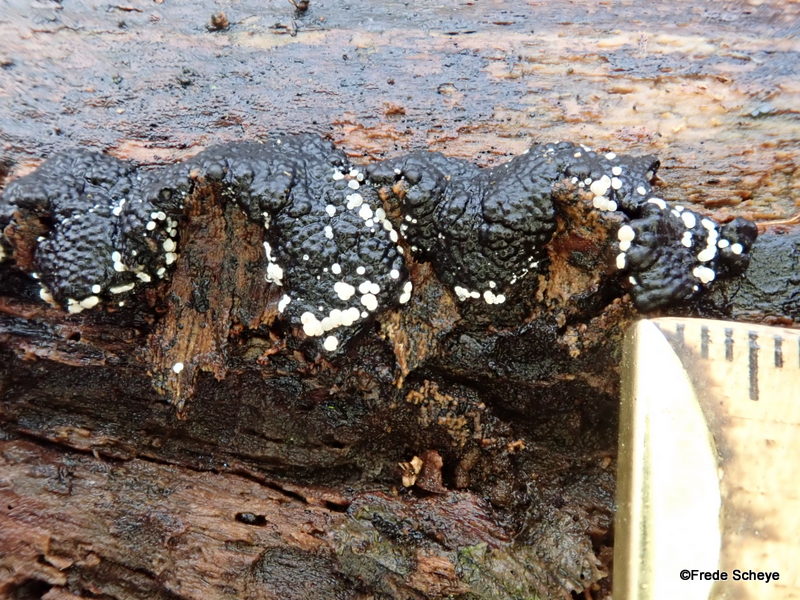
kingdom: Fungi
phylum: Ascomycota
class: Leotiomycetes
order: Helotiales
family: Hyaloscyphaceae
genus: Polydesmia
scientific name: Polydesmia pruinosa
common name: dunskive
